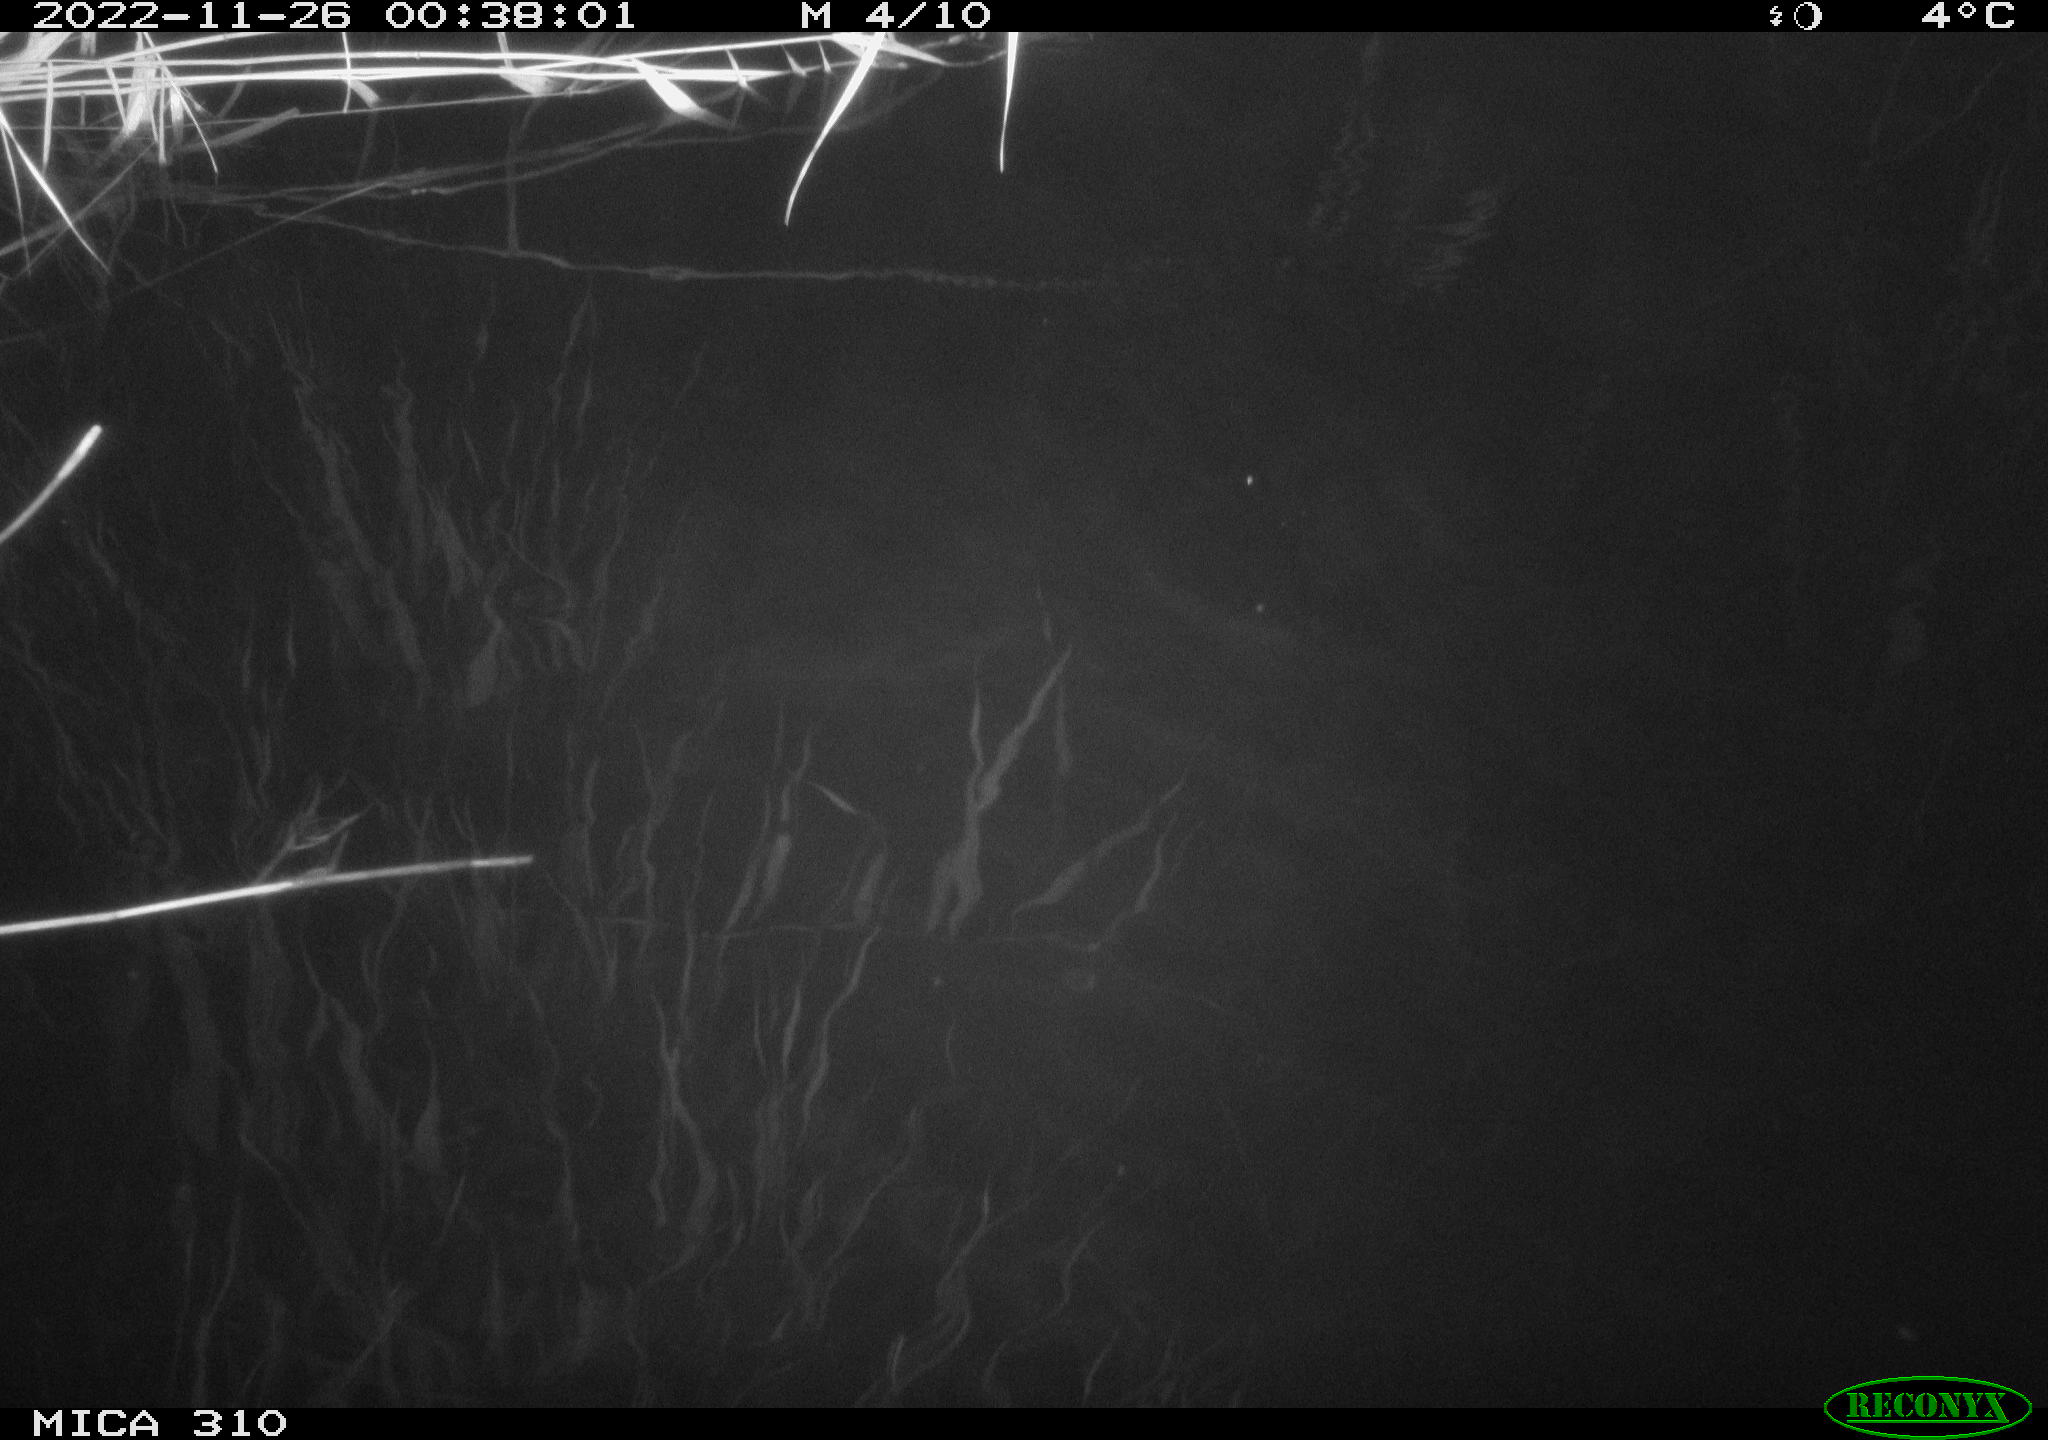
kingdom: Animalia
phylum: Chordata
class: Mammalia
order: Rodentia
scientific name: Rodentia
